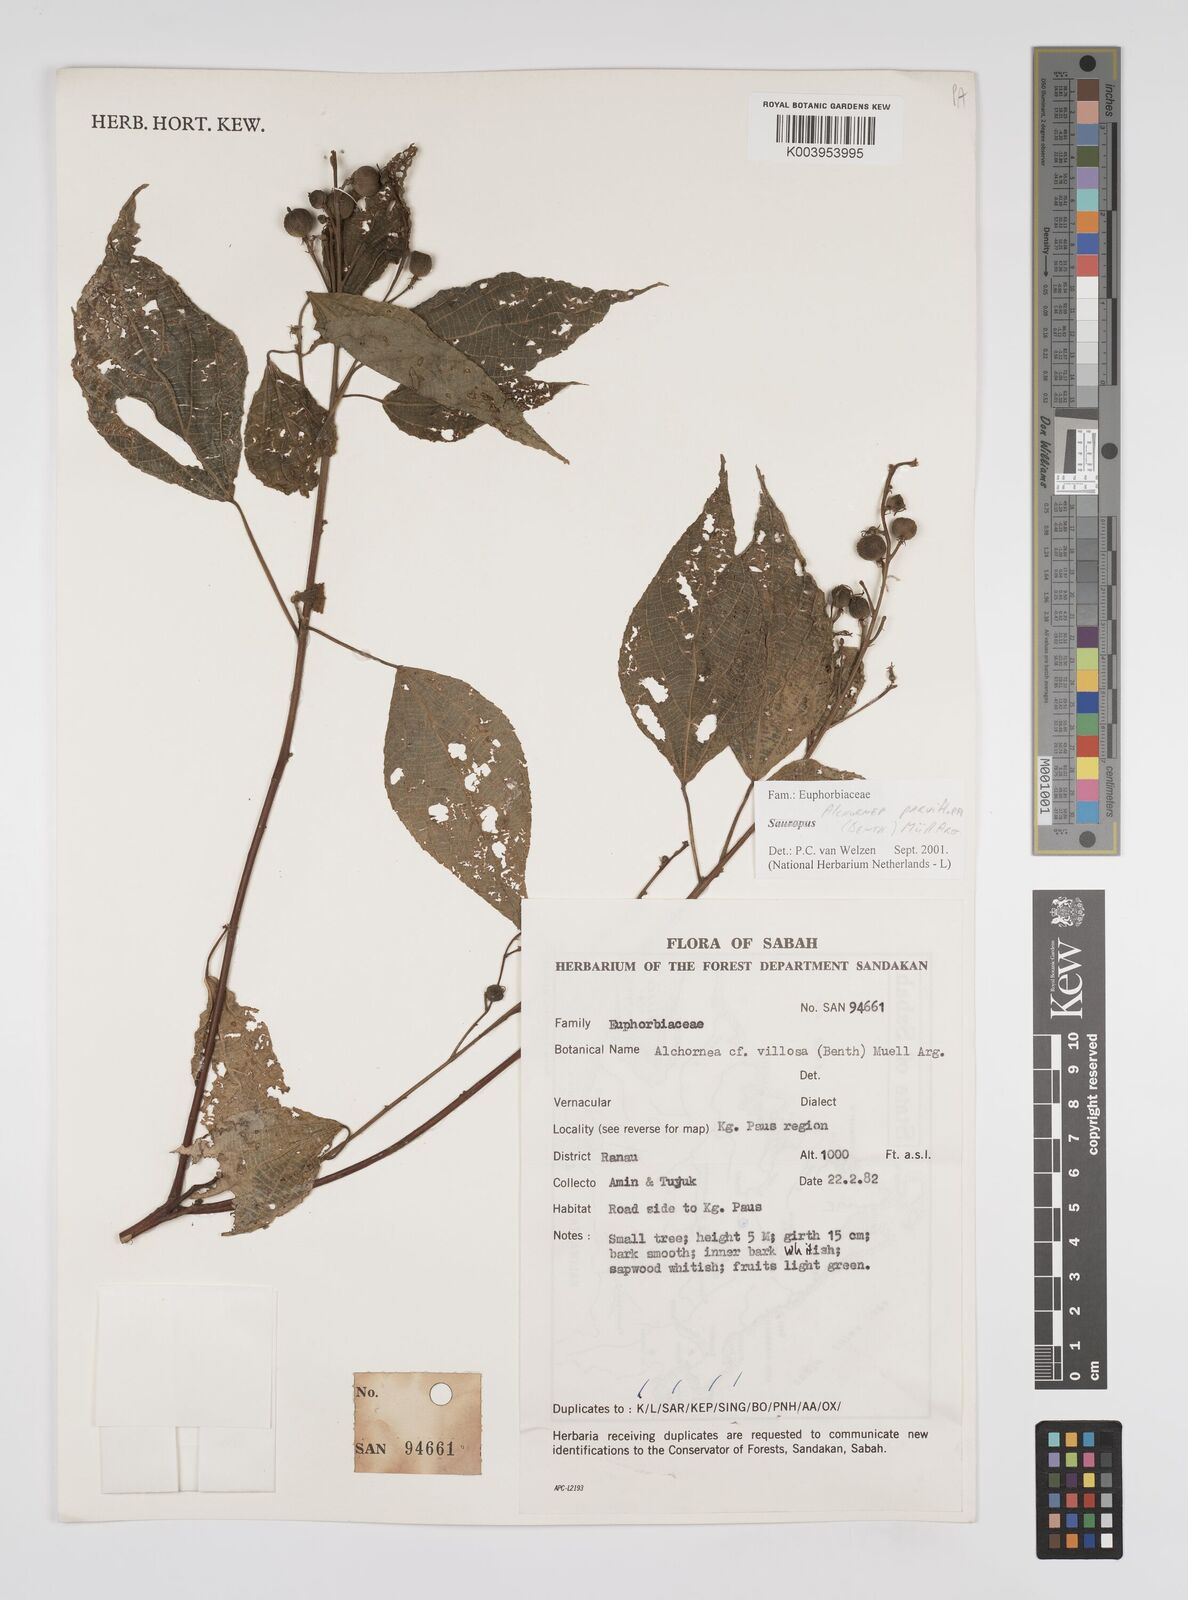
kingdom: Plantae
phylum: Tracheophyta
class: Magnoliopsida
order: Malpighiales
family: Euphorbiaceae
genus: Alchornea
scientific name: Alchornea parviflora
